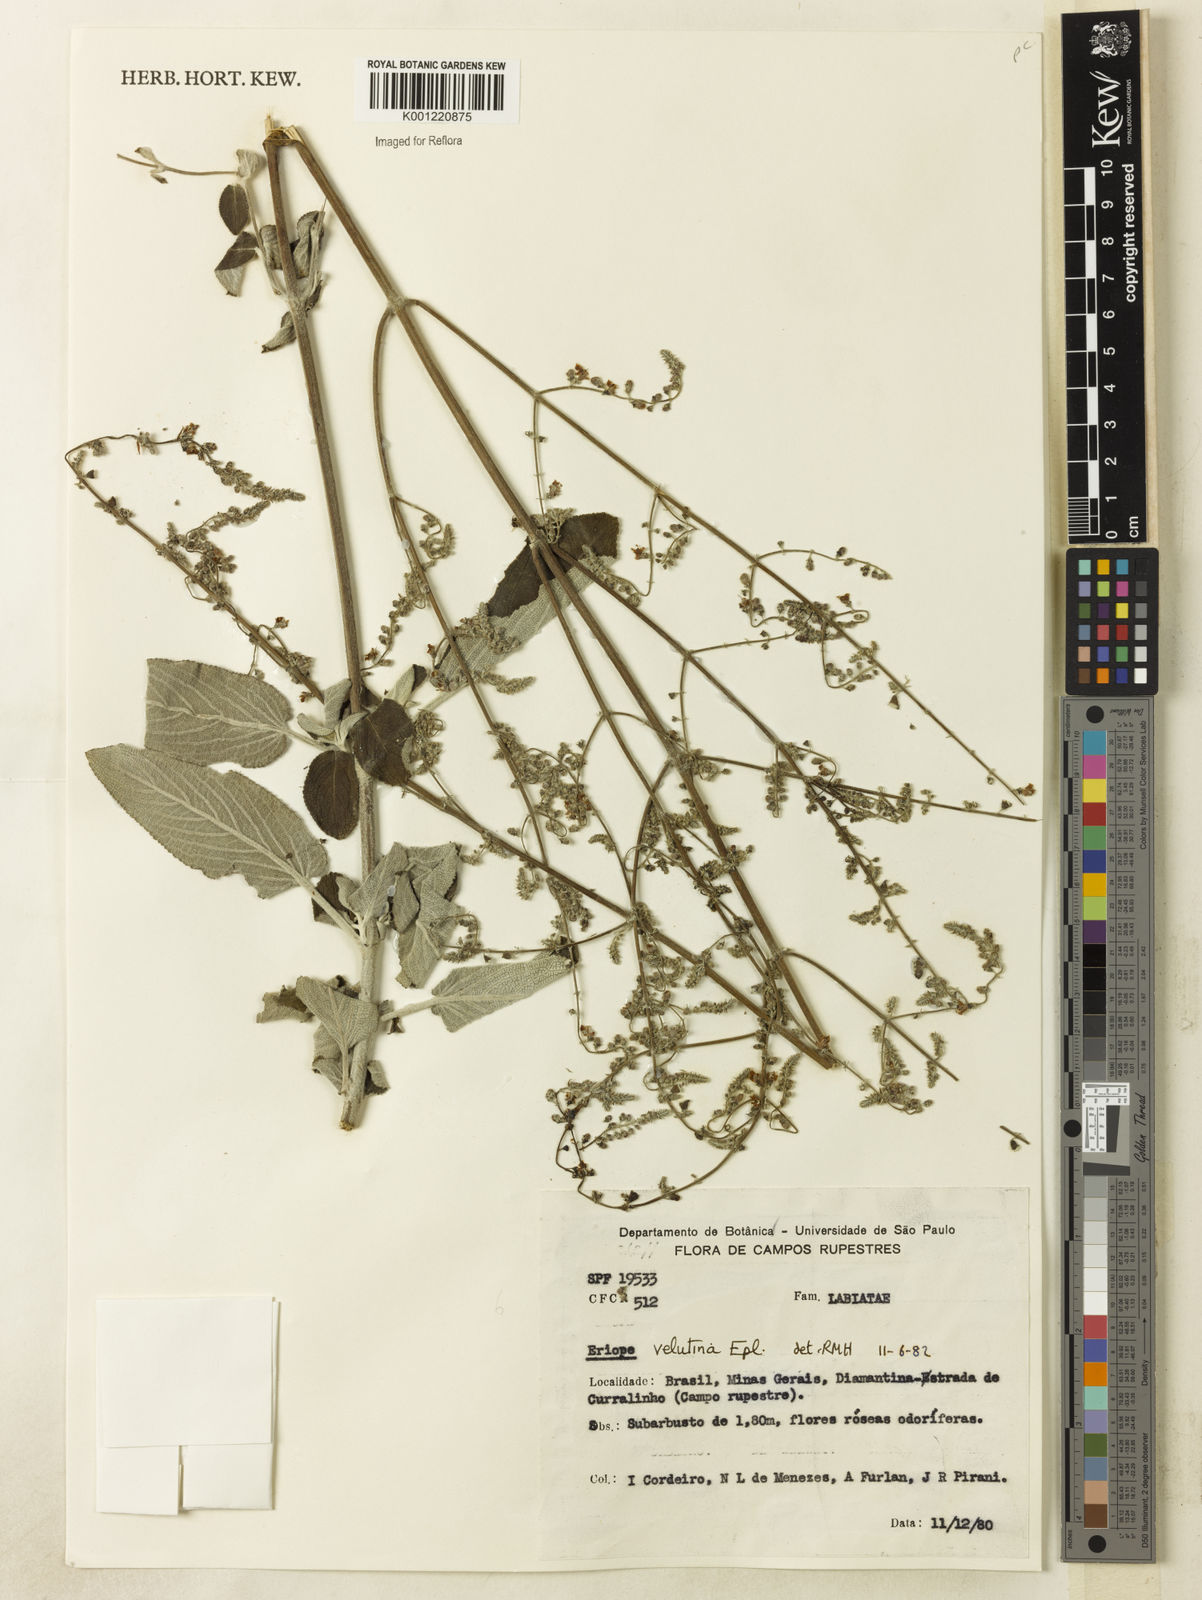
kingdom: Plantae
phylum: Tracheophyta
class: Magnoliopsida
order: Lamiales
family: Lamiaceae
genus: Eriope
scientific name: Eriope velutina
